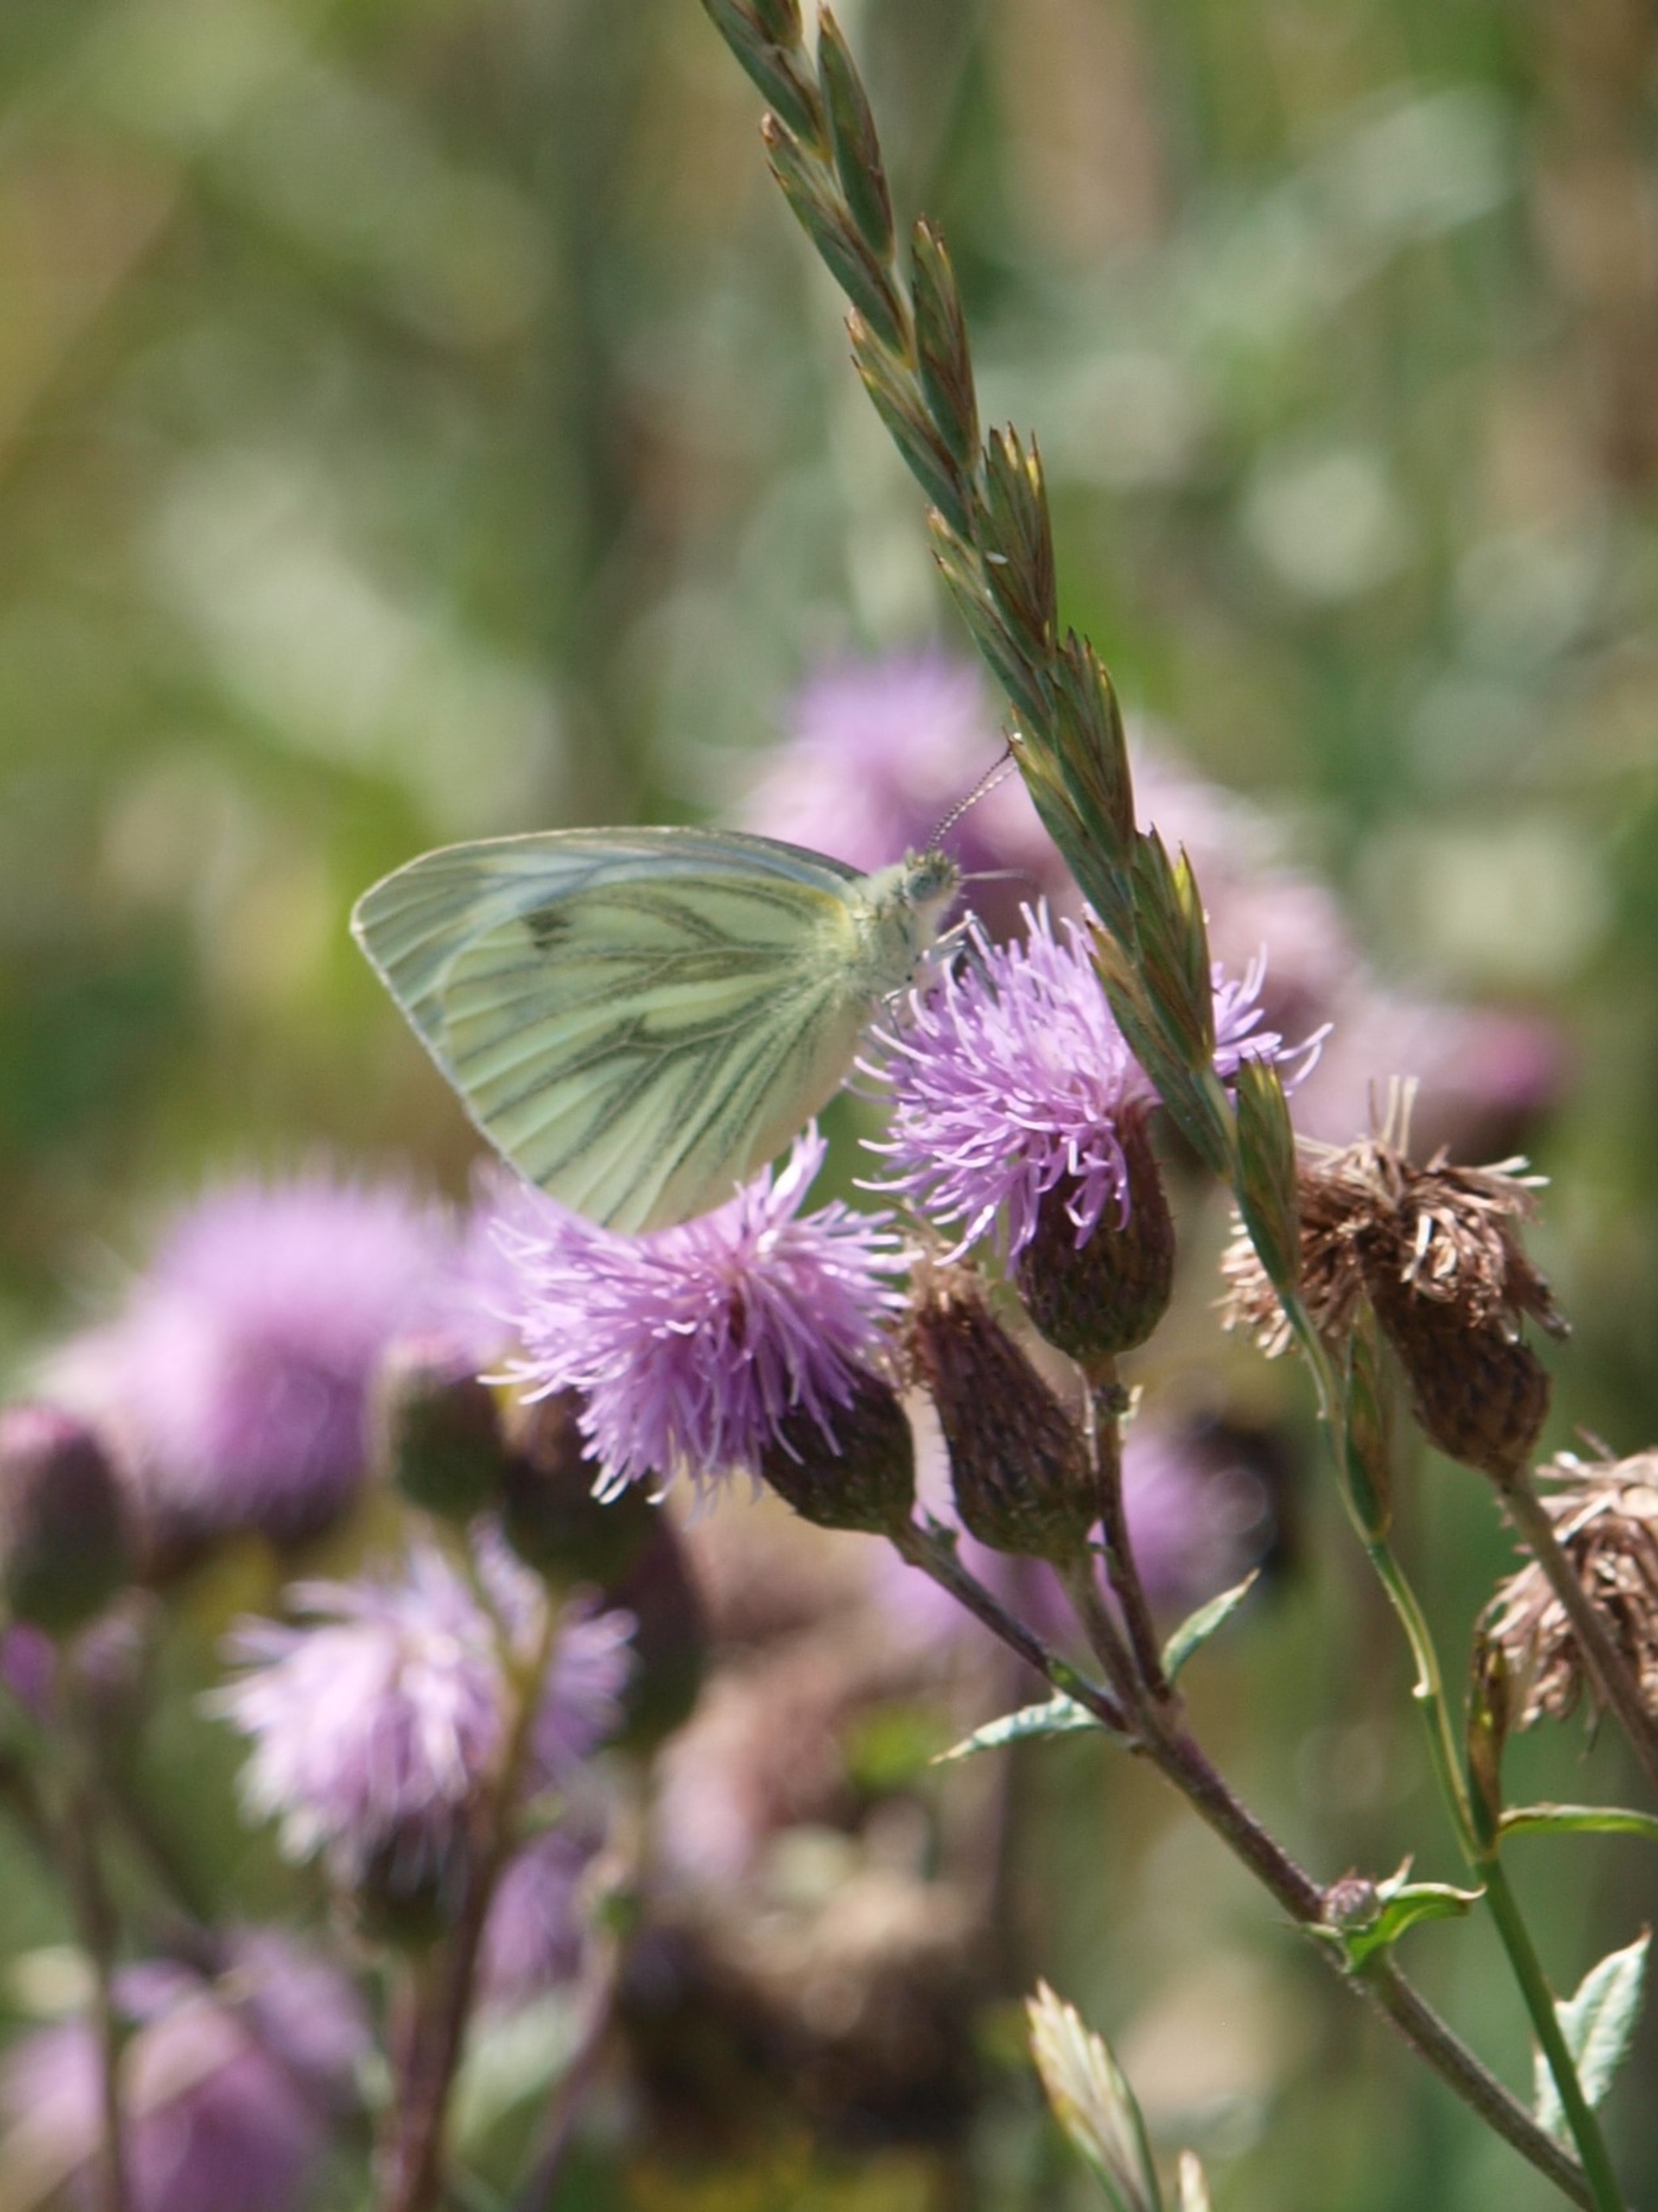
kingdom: Animalia
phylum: Arthropoda
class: Insecta
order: Lepidoptera
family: Pieridae
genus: Pieris
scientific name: Pieris napi
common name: Grønåret kålsommerfugl
